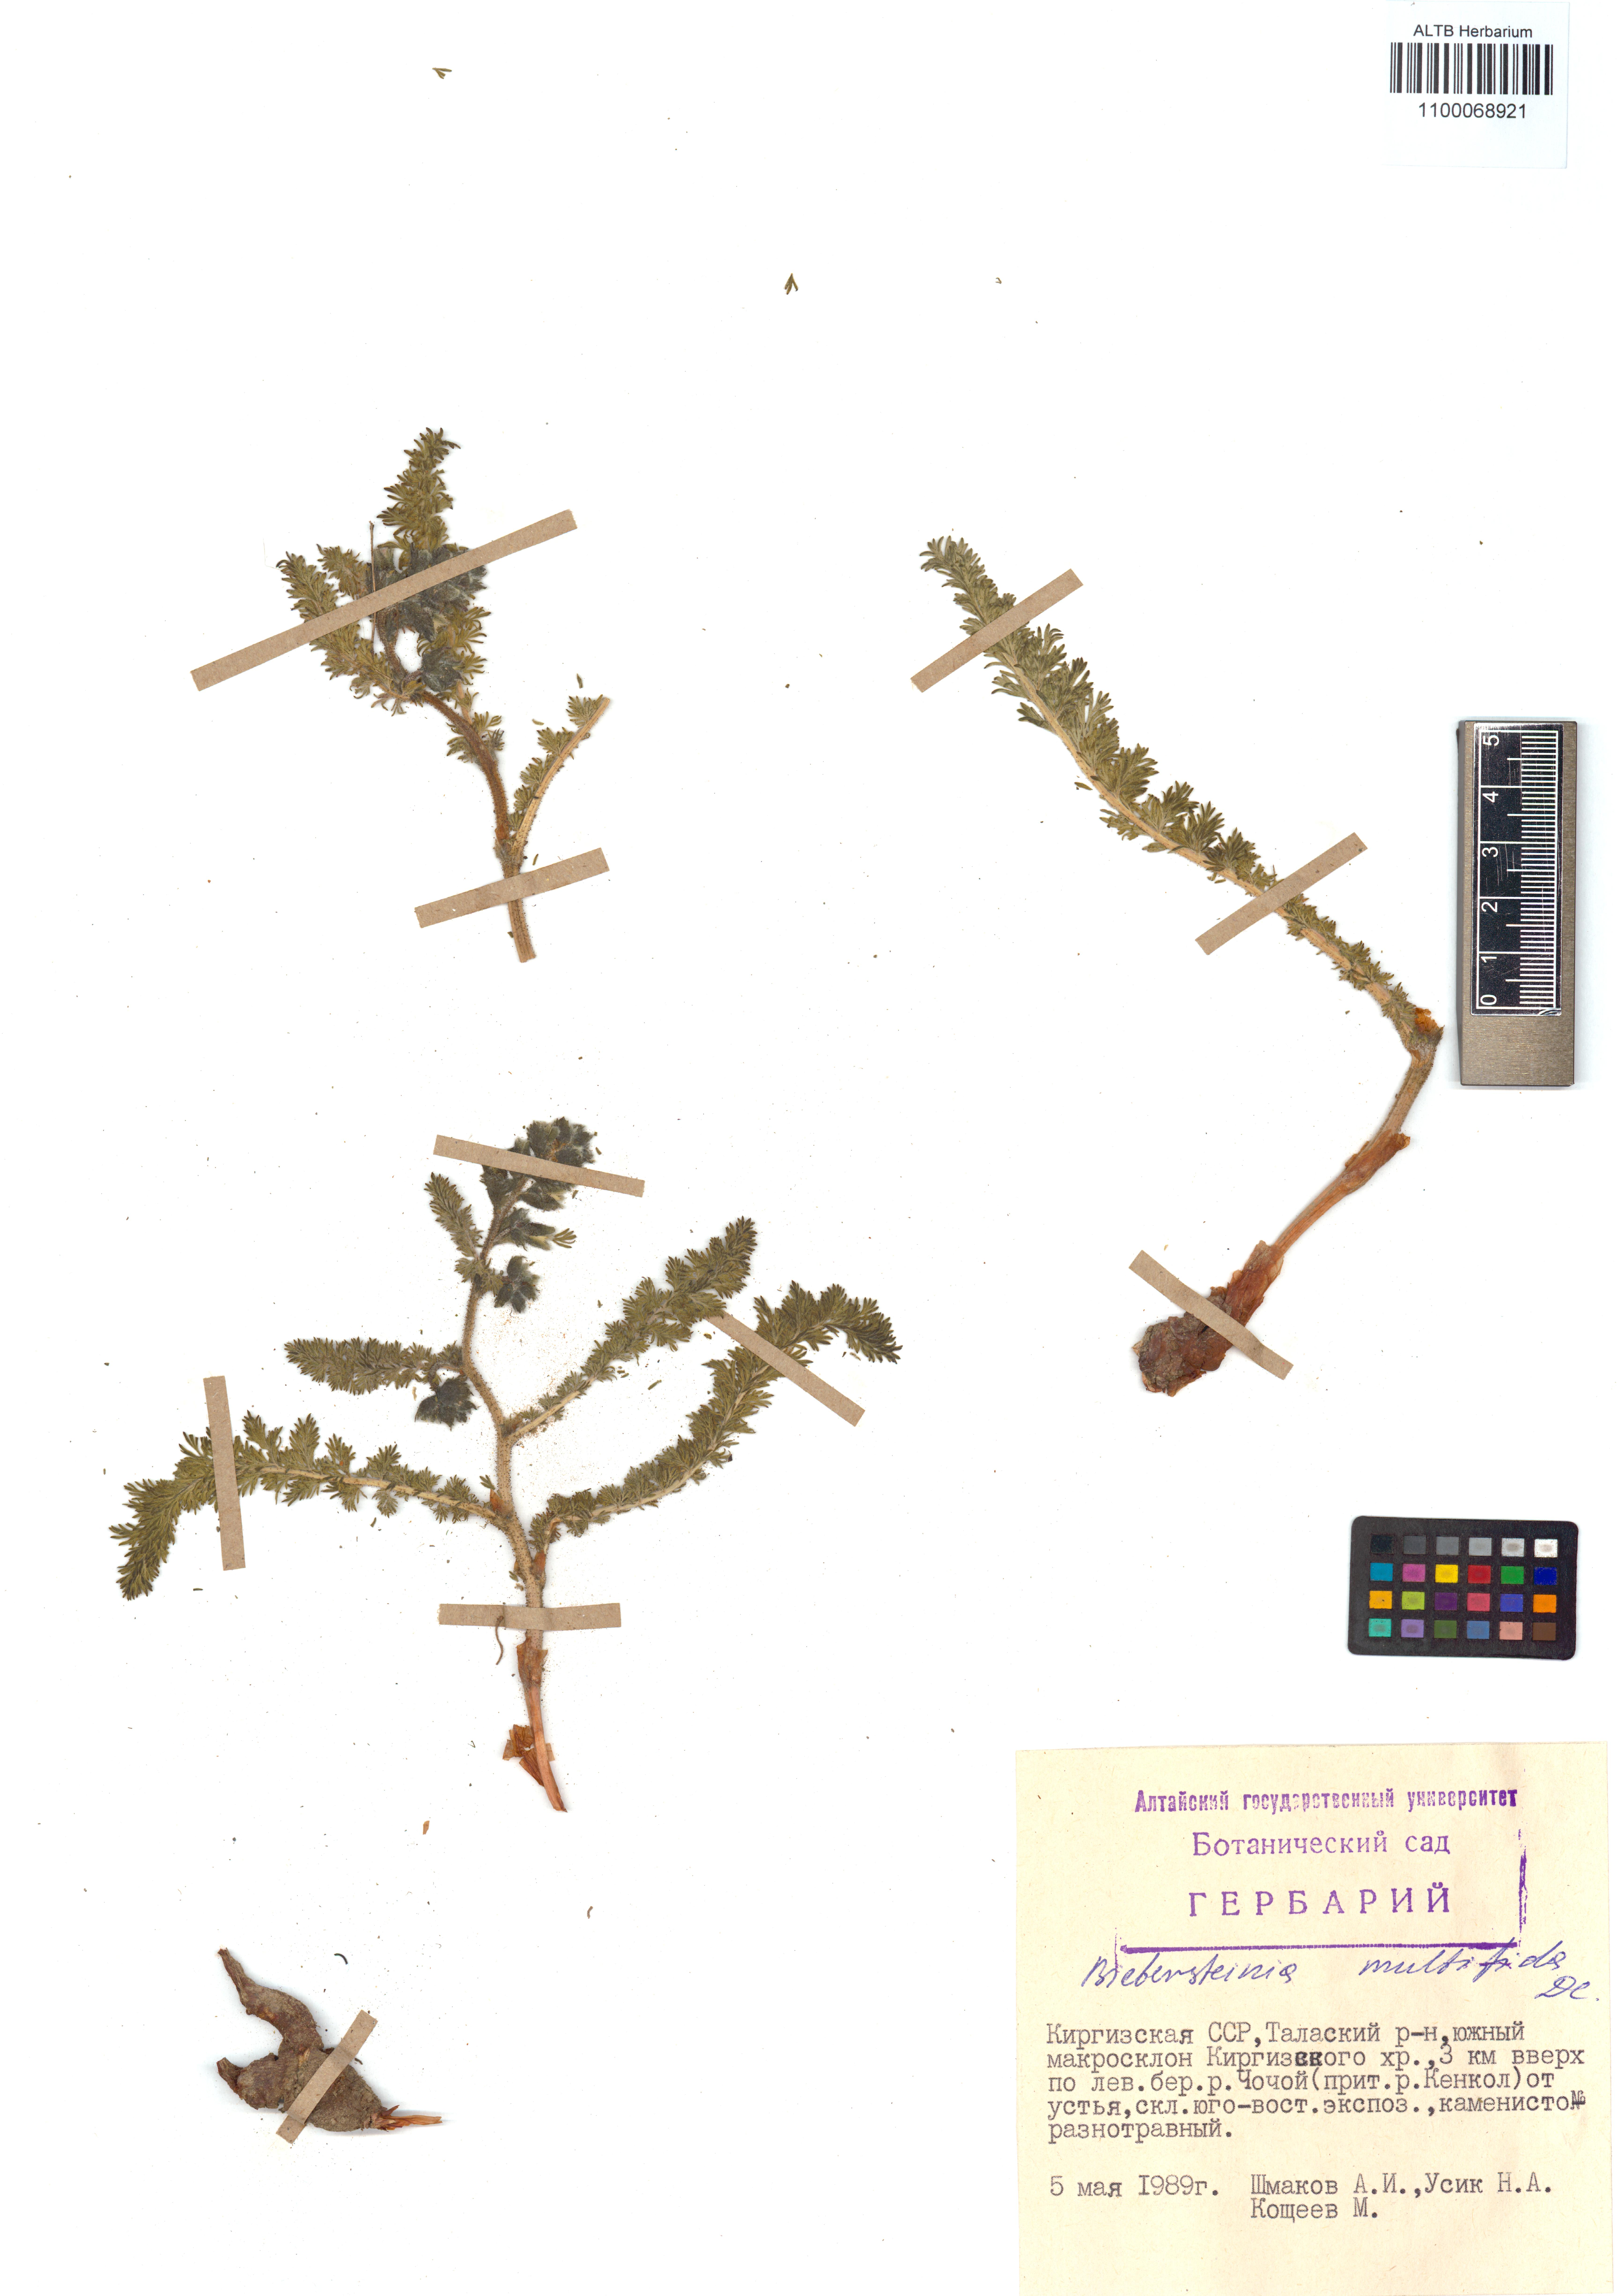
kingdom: Plantae
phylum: Tracheophyta
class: Magnoliopsida
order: Sapindales
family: Biebersteiniaceae
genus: Biebersteinia
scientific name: Biebersteinia multifida
